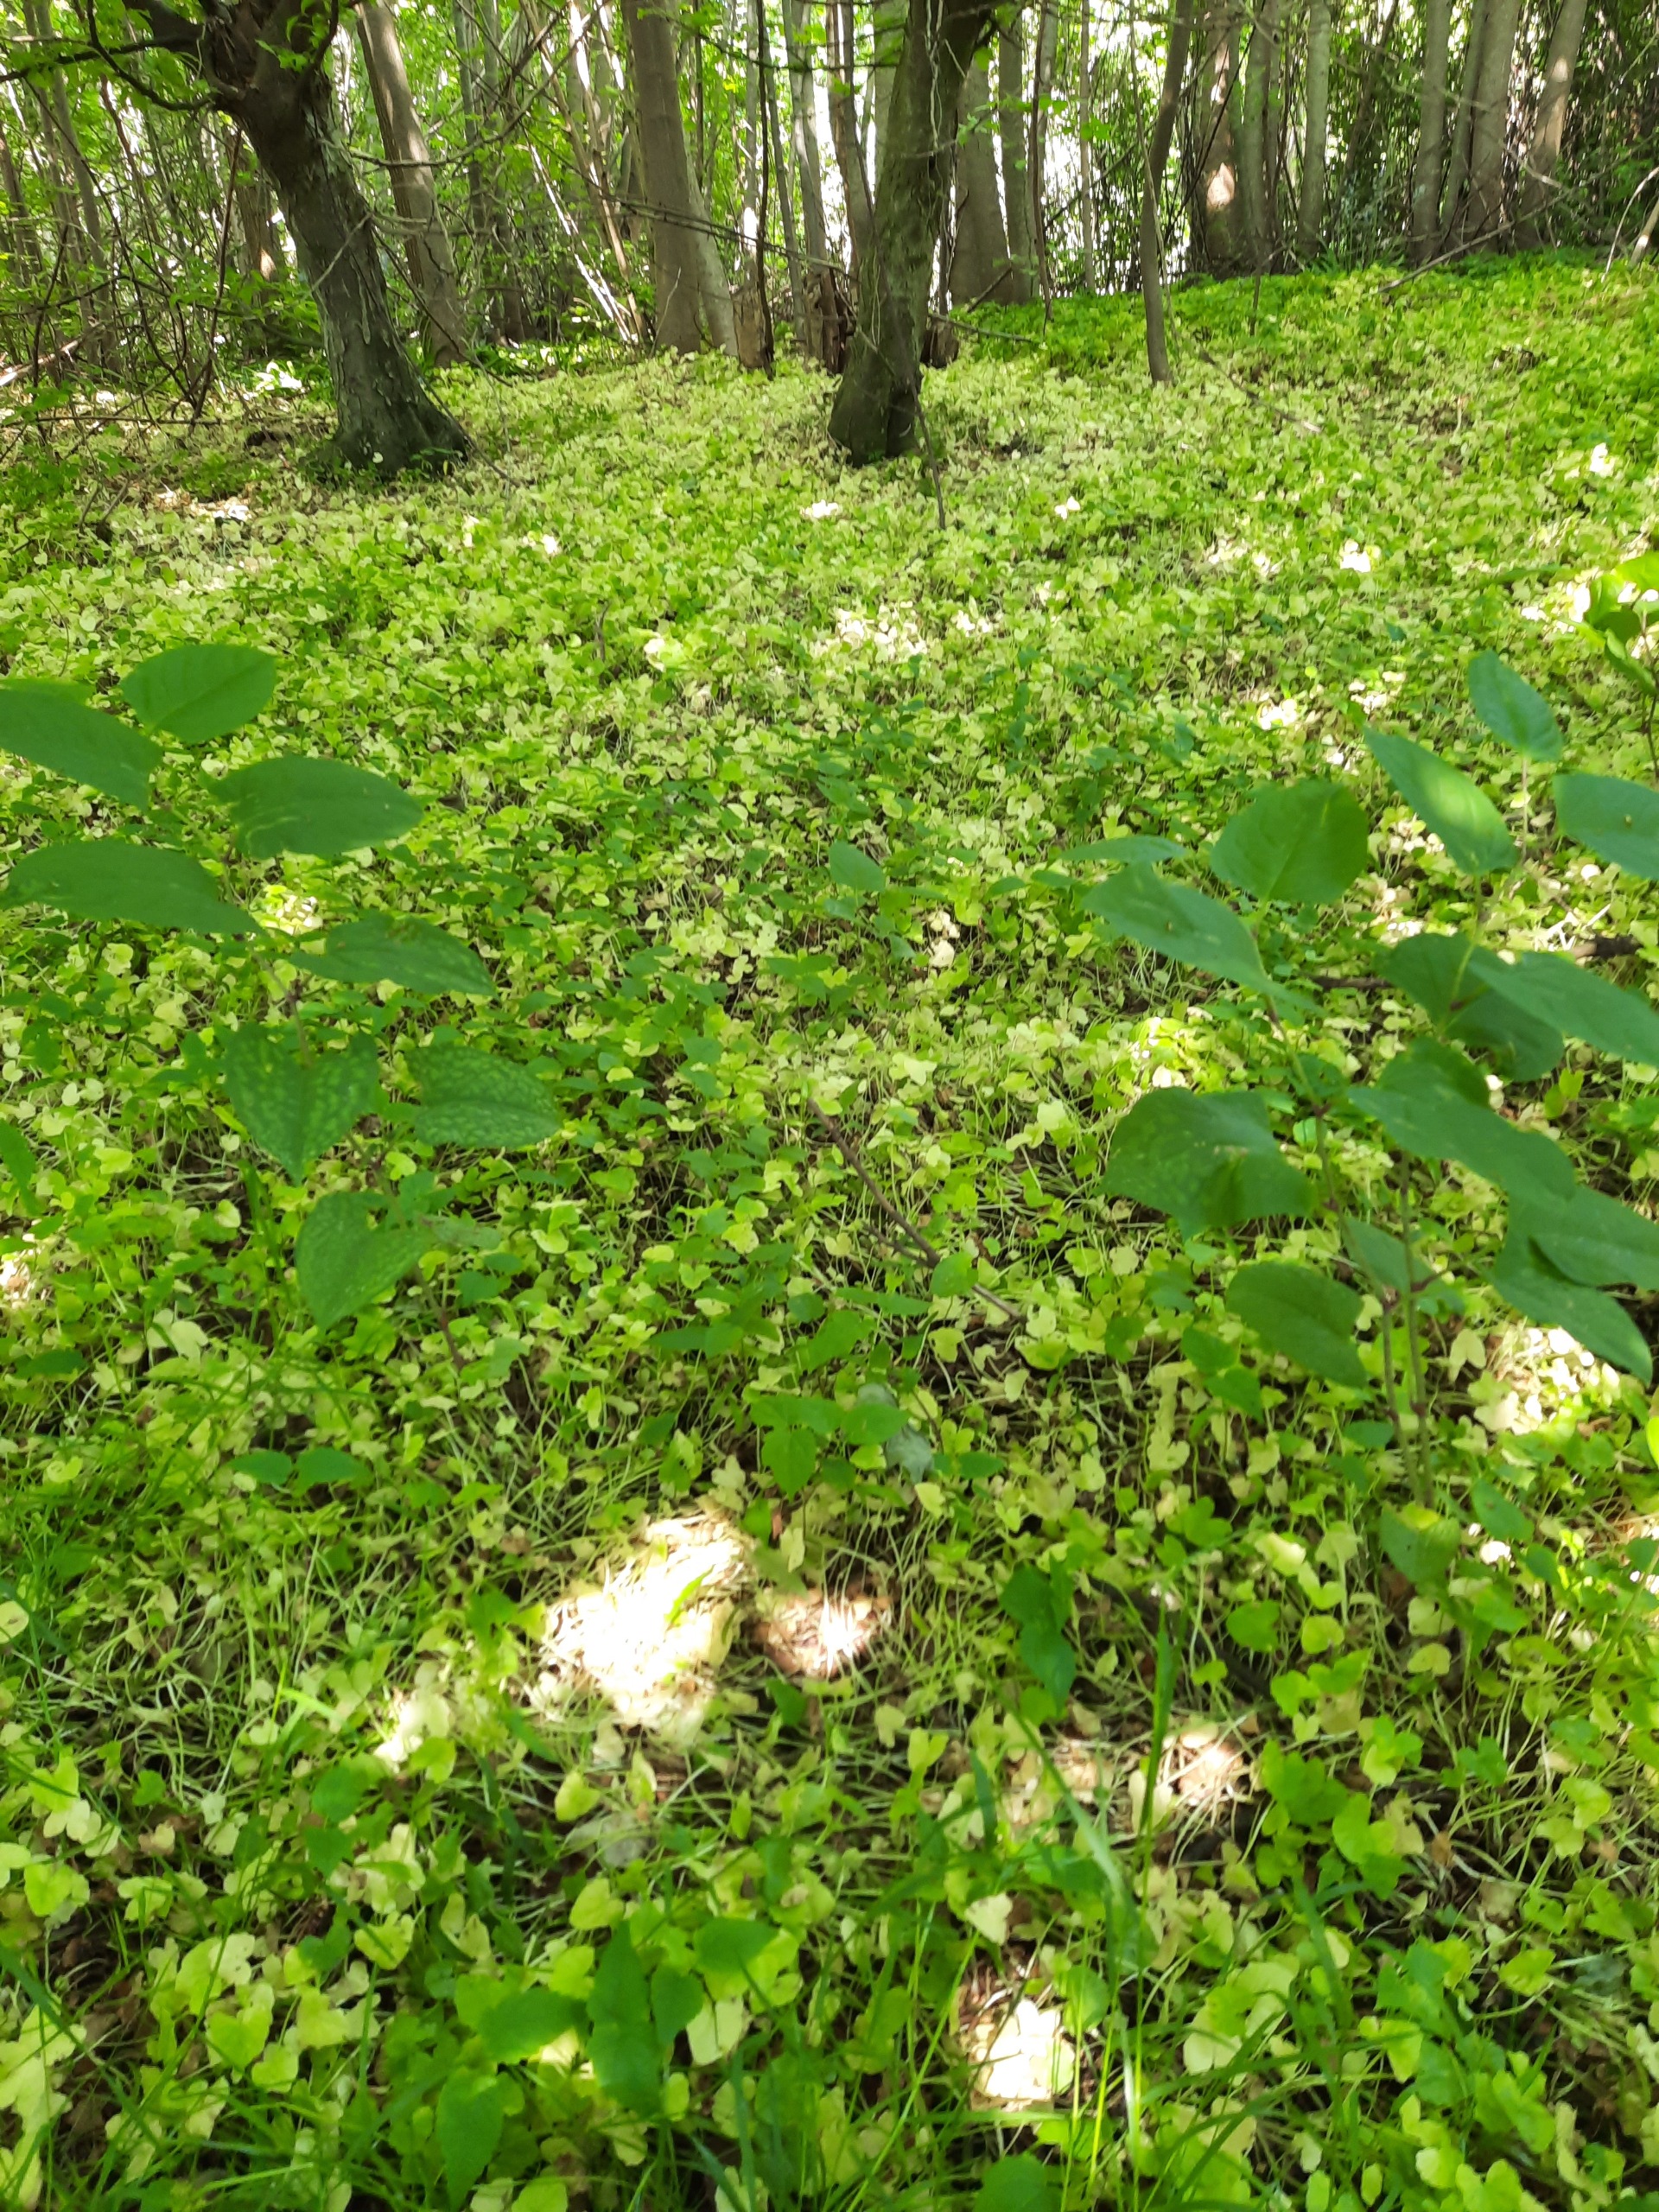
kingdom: Plantae
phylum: Tracheophyta
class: Magnoliopsida
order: Caryophyllales
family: Polygonaceae
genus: Reynoutria
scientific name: Reynoutria japonica
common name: Japan-pileurt
